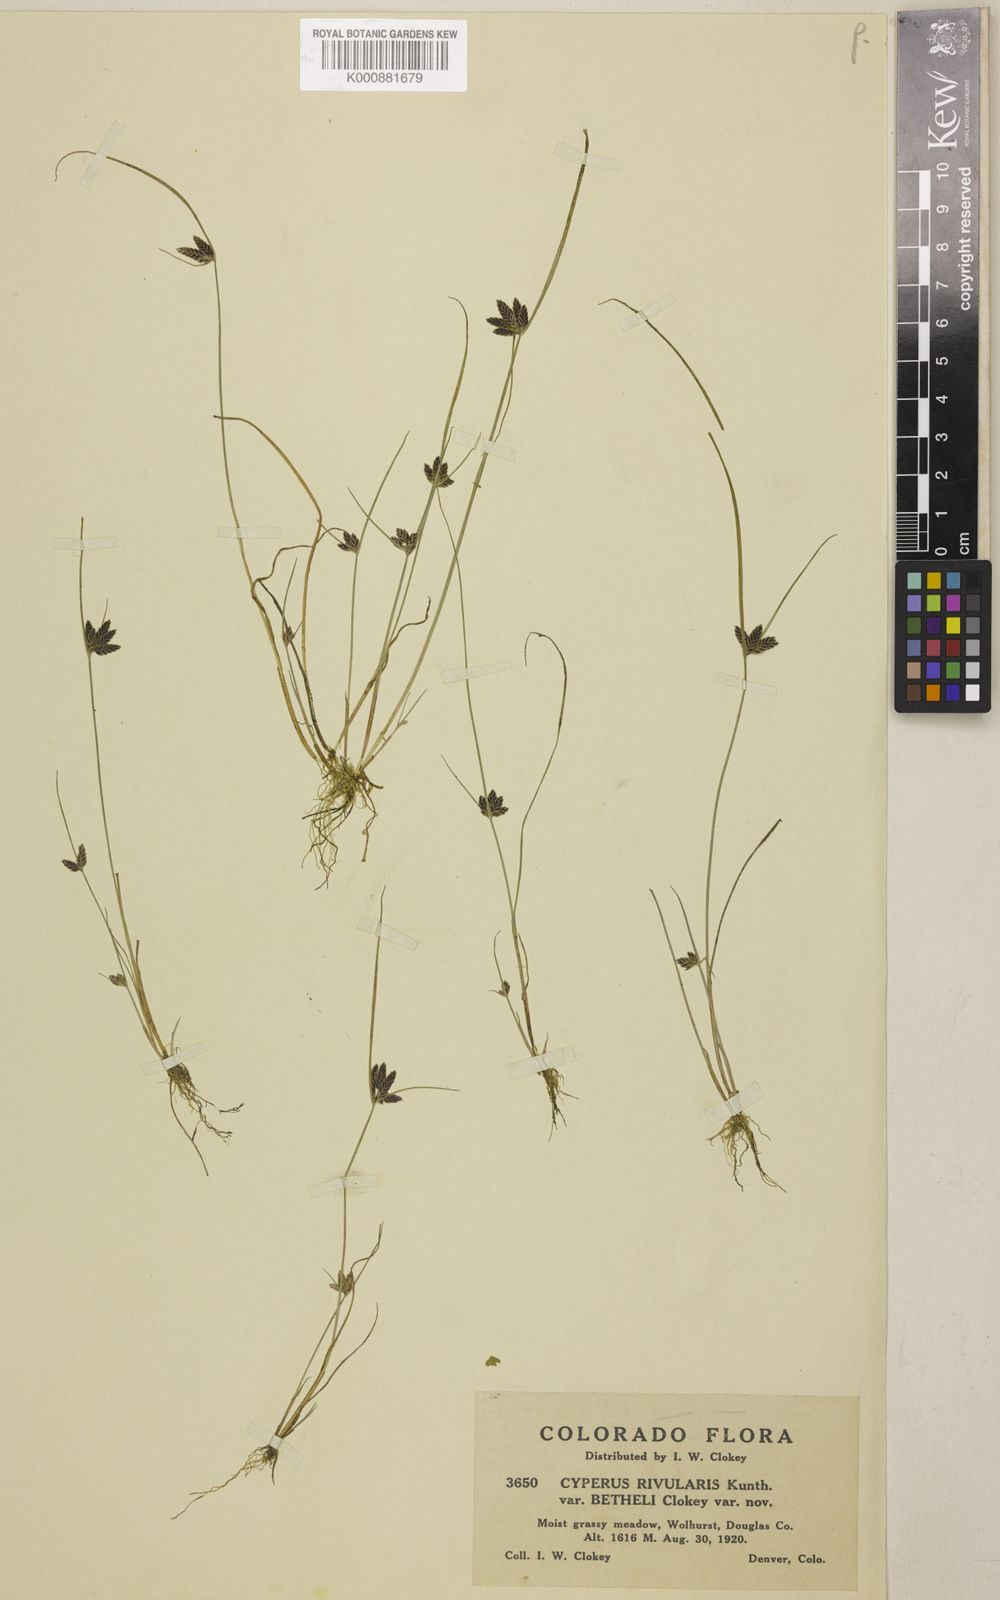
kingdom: Plantae
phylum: Tracheophyta
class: Liliopsida
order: Poales
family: Cyperaceae
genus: Cyperus
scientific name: Cyperus bipartitus
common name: Brook flatsedge
